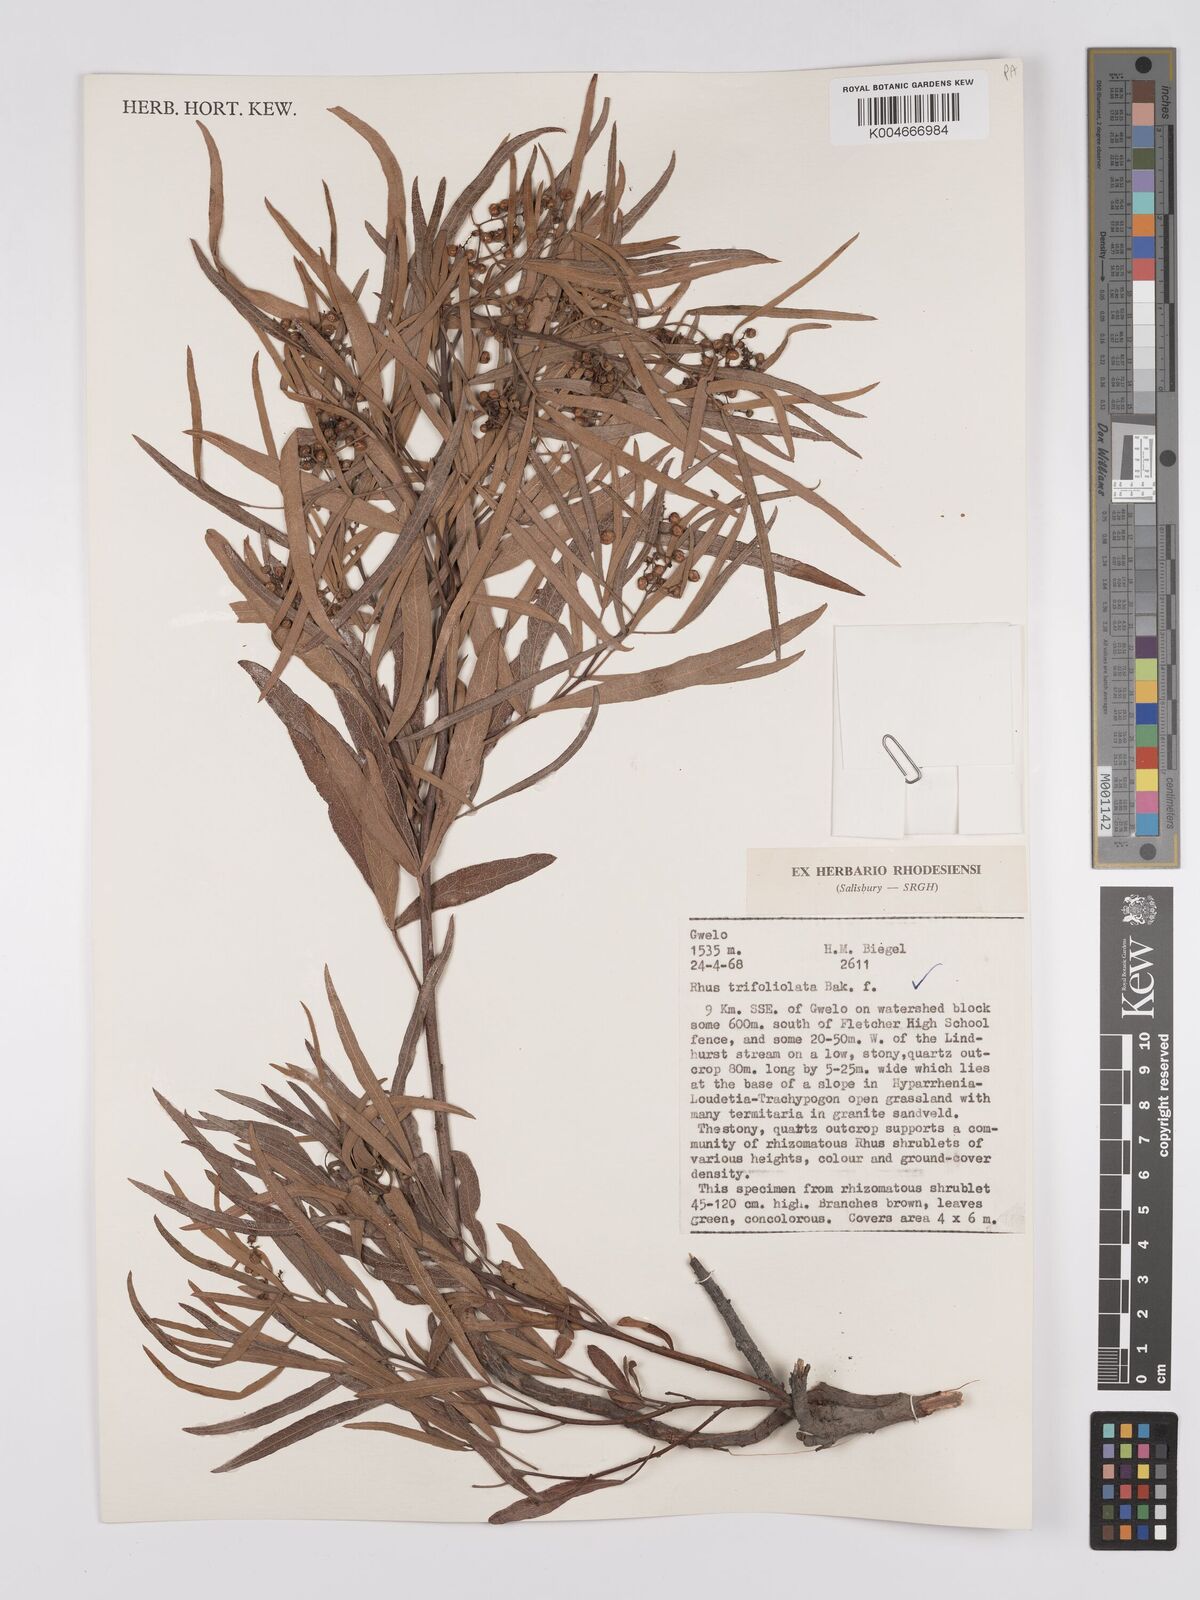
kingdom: Plantae
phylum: Tracheophyta
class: Magnoliopsida
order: Sapindales
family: Anacardiaceae
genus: Rhus
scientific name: Rhus
